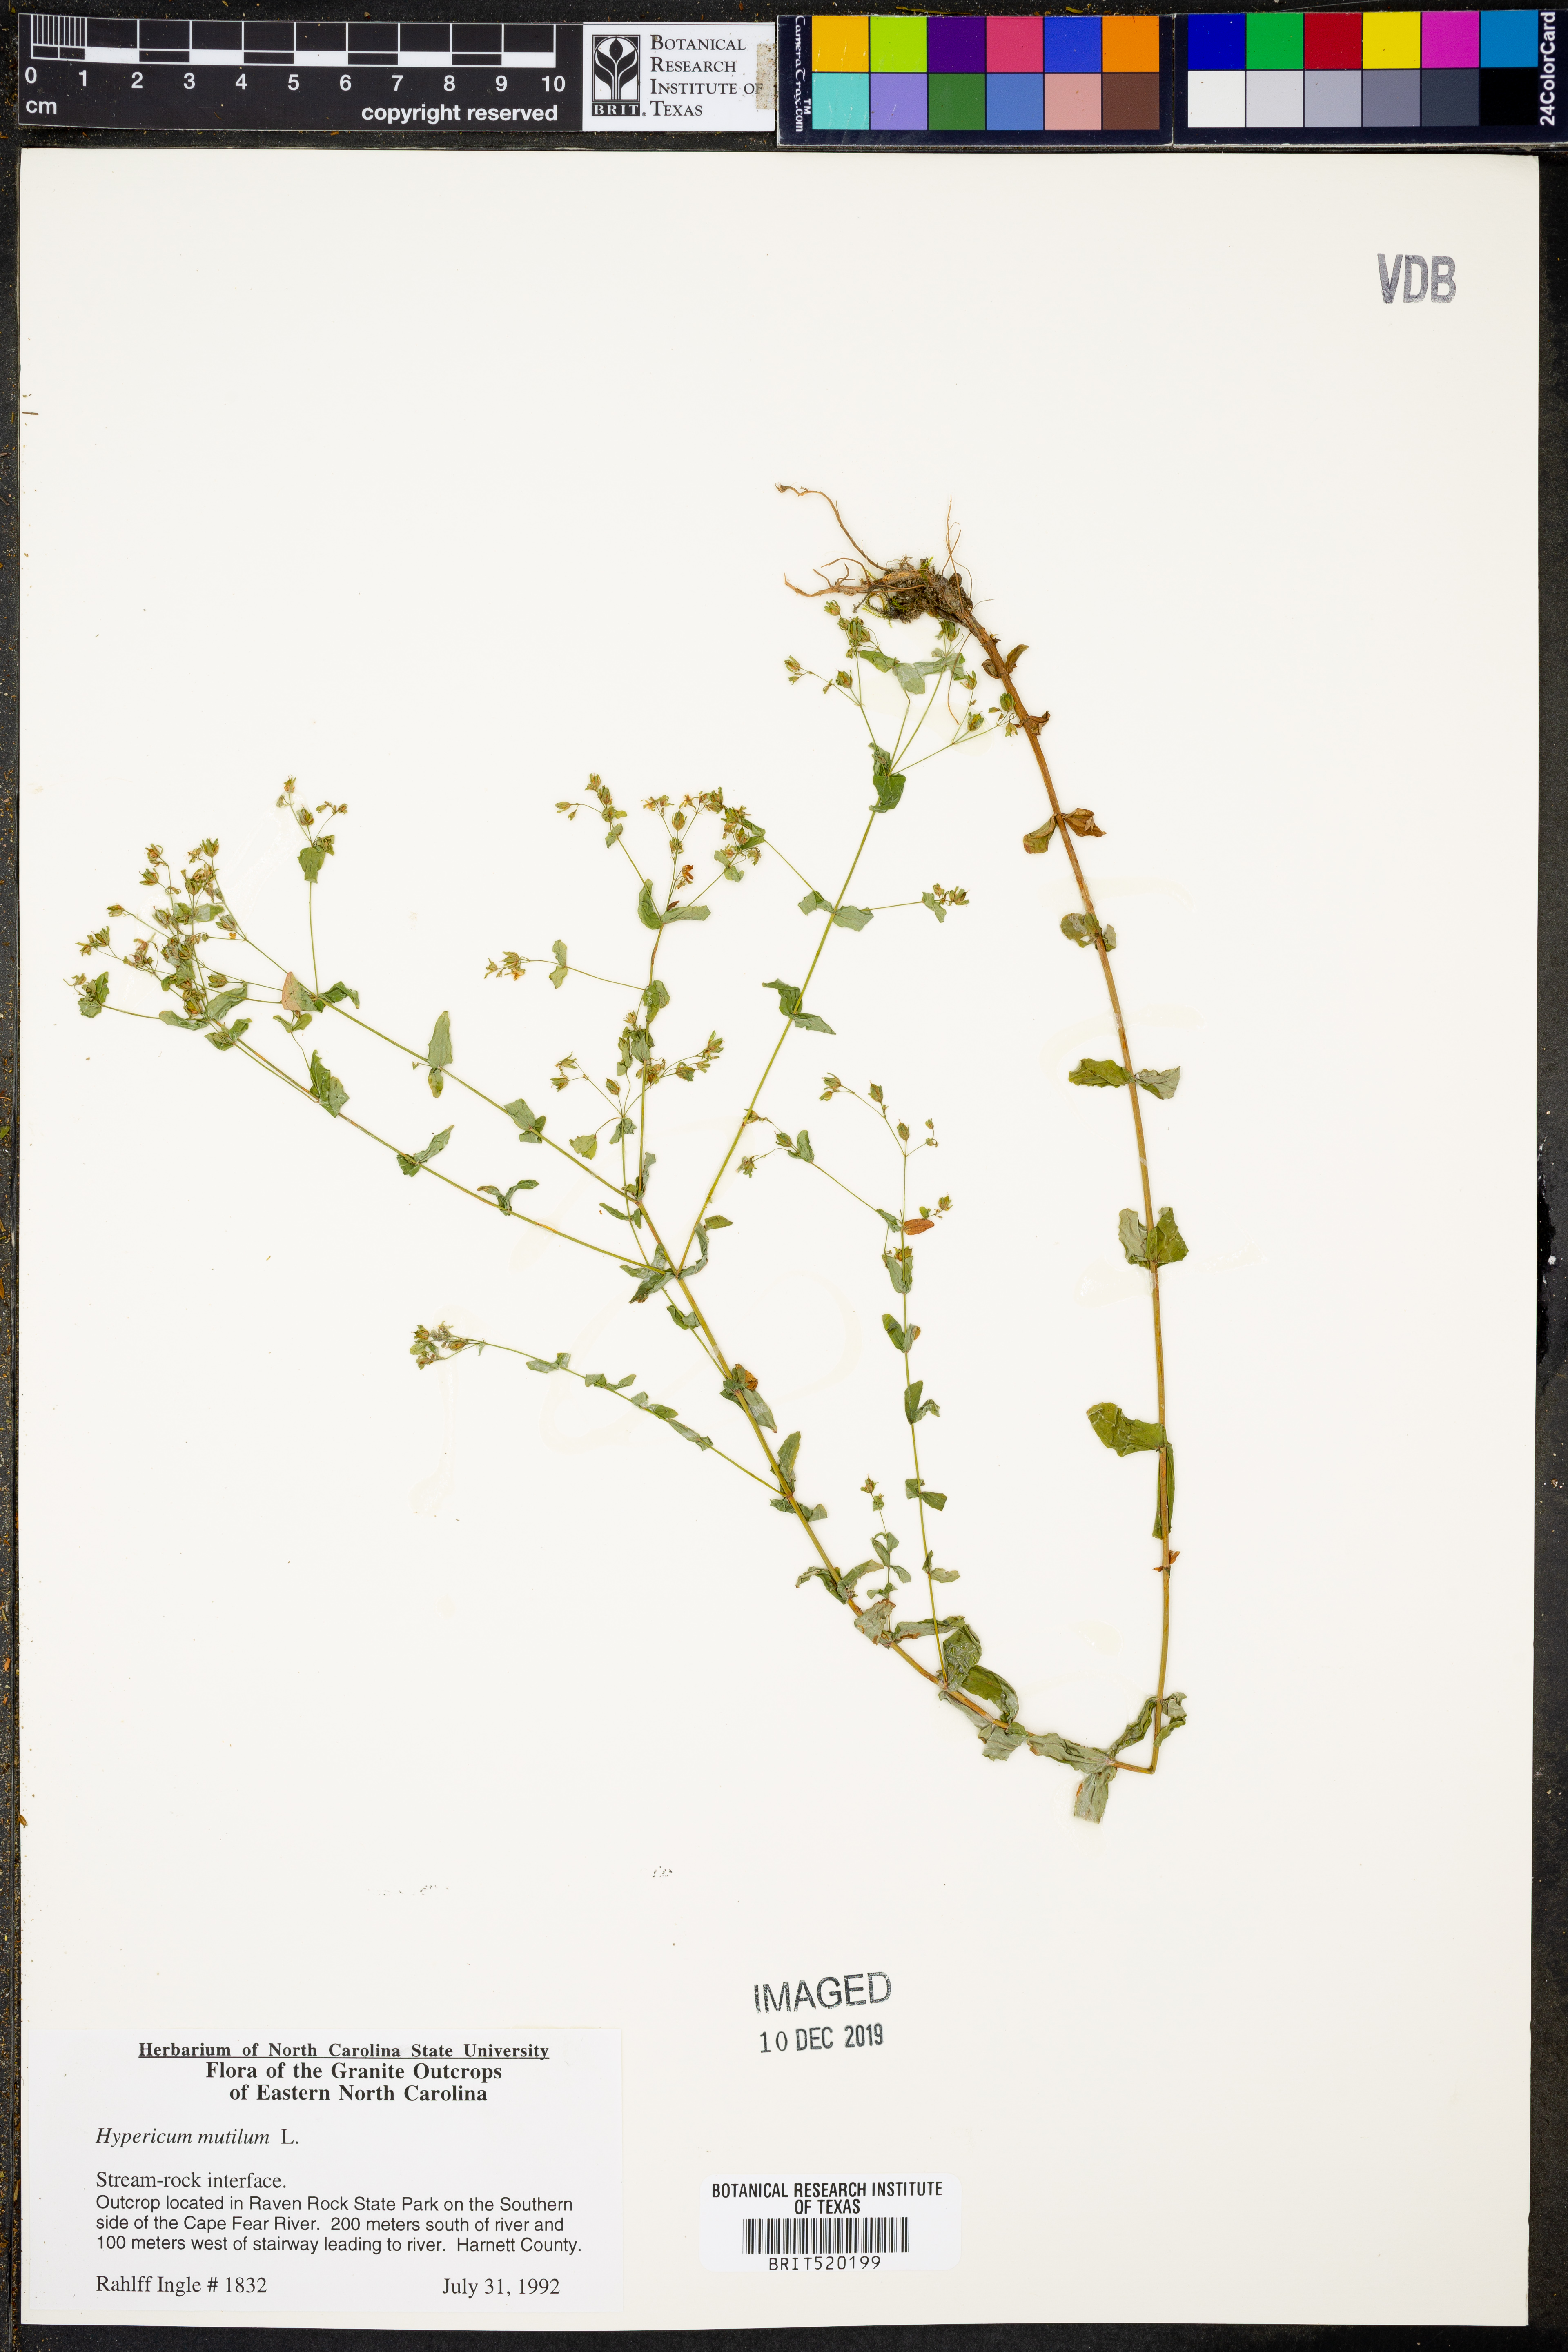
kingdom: Plantae
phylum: Tracheophyta
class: Magnoliopsida
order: Malpighiales
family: Hypericaceae
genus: Hypericum
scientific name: Hypericum mutilum
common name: Dwarf st. john's-wort
